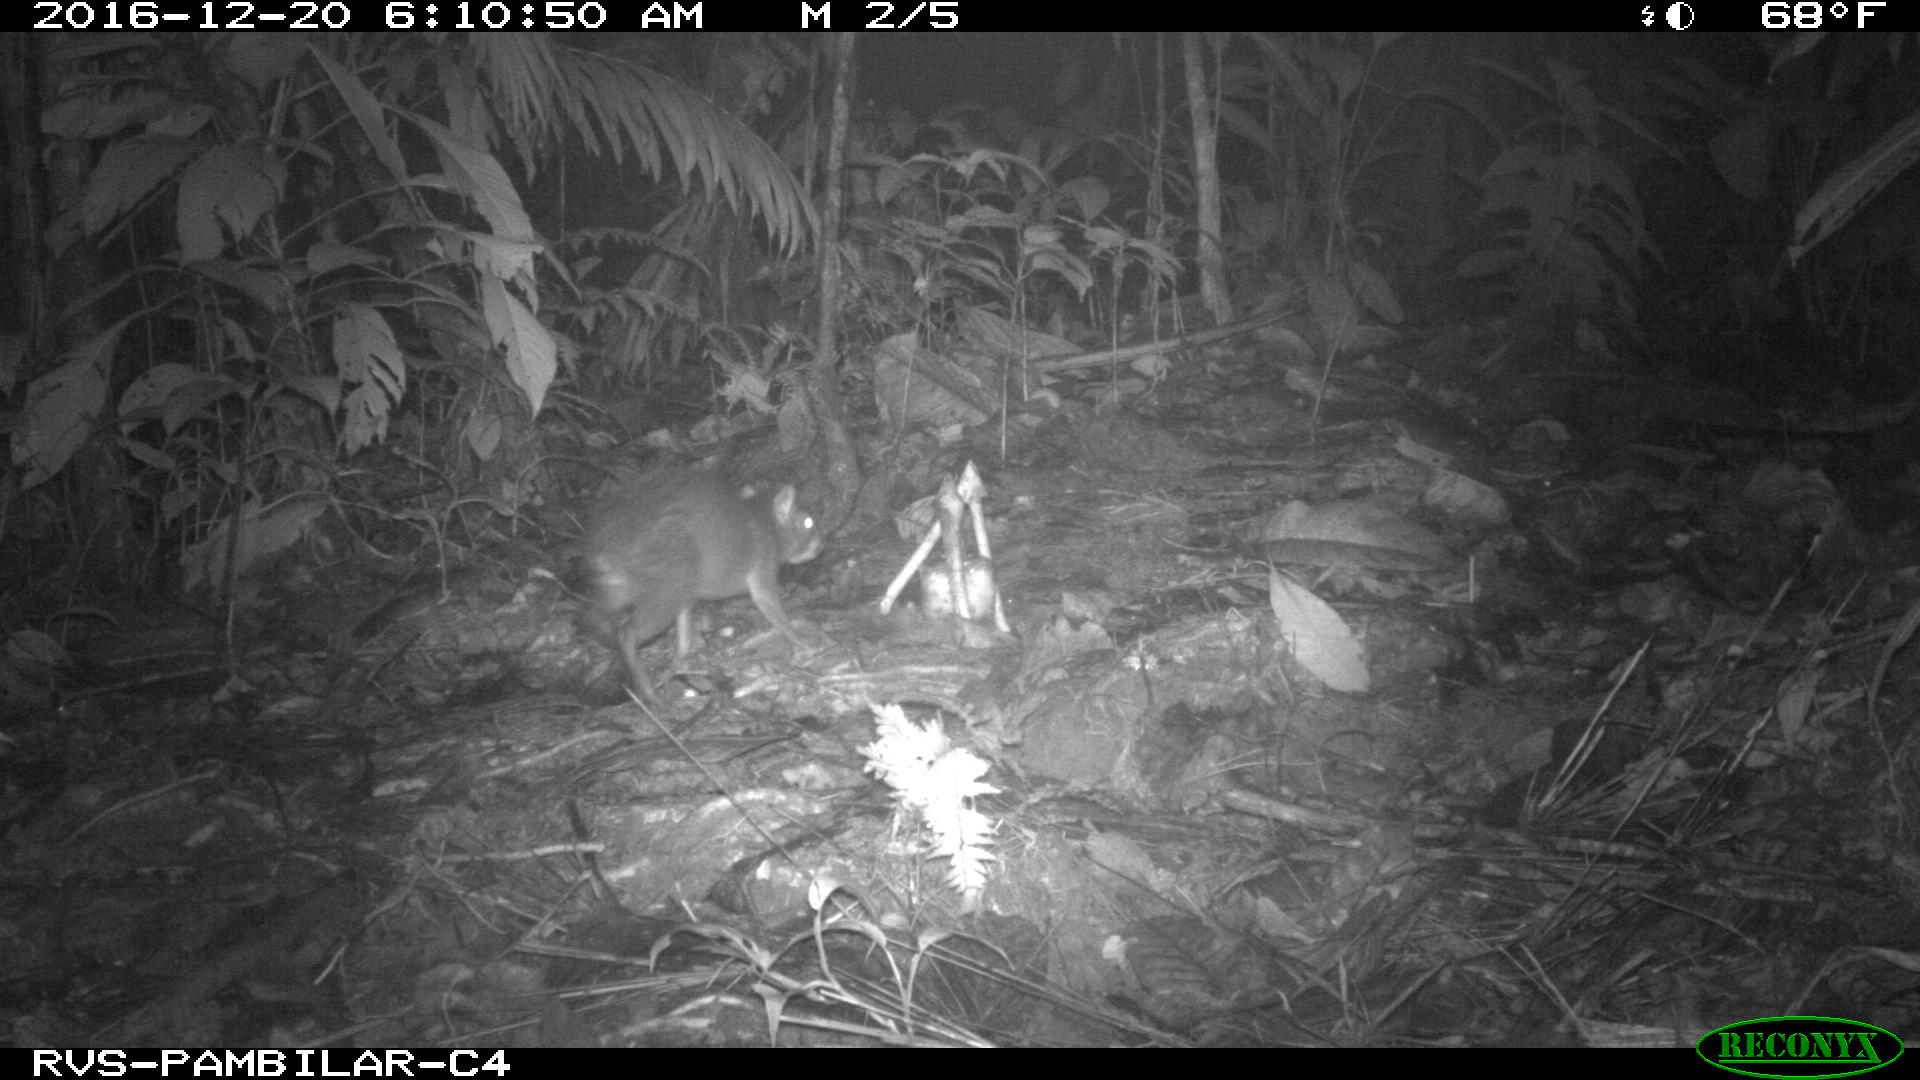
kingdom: Animalia
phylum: Chordata
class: Mammalia
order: Rodentia
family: Dasyproctidae
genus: Dasyprocta
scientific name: Dasyprocta punctata
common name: Central american agouti
